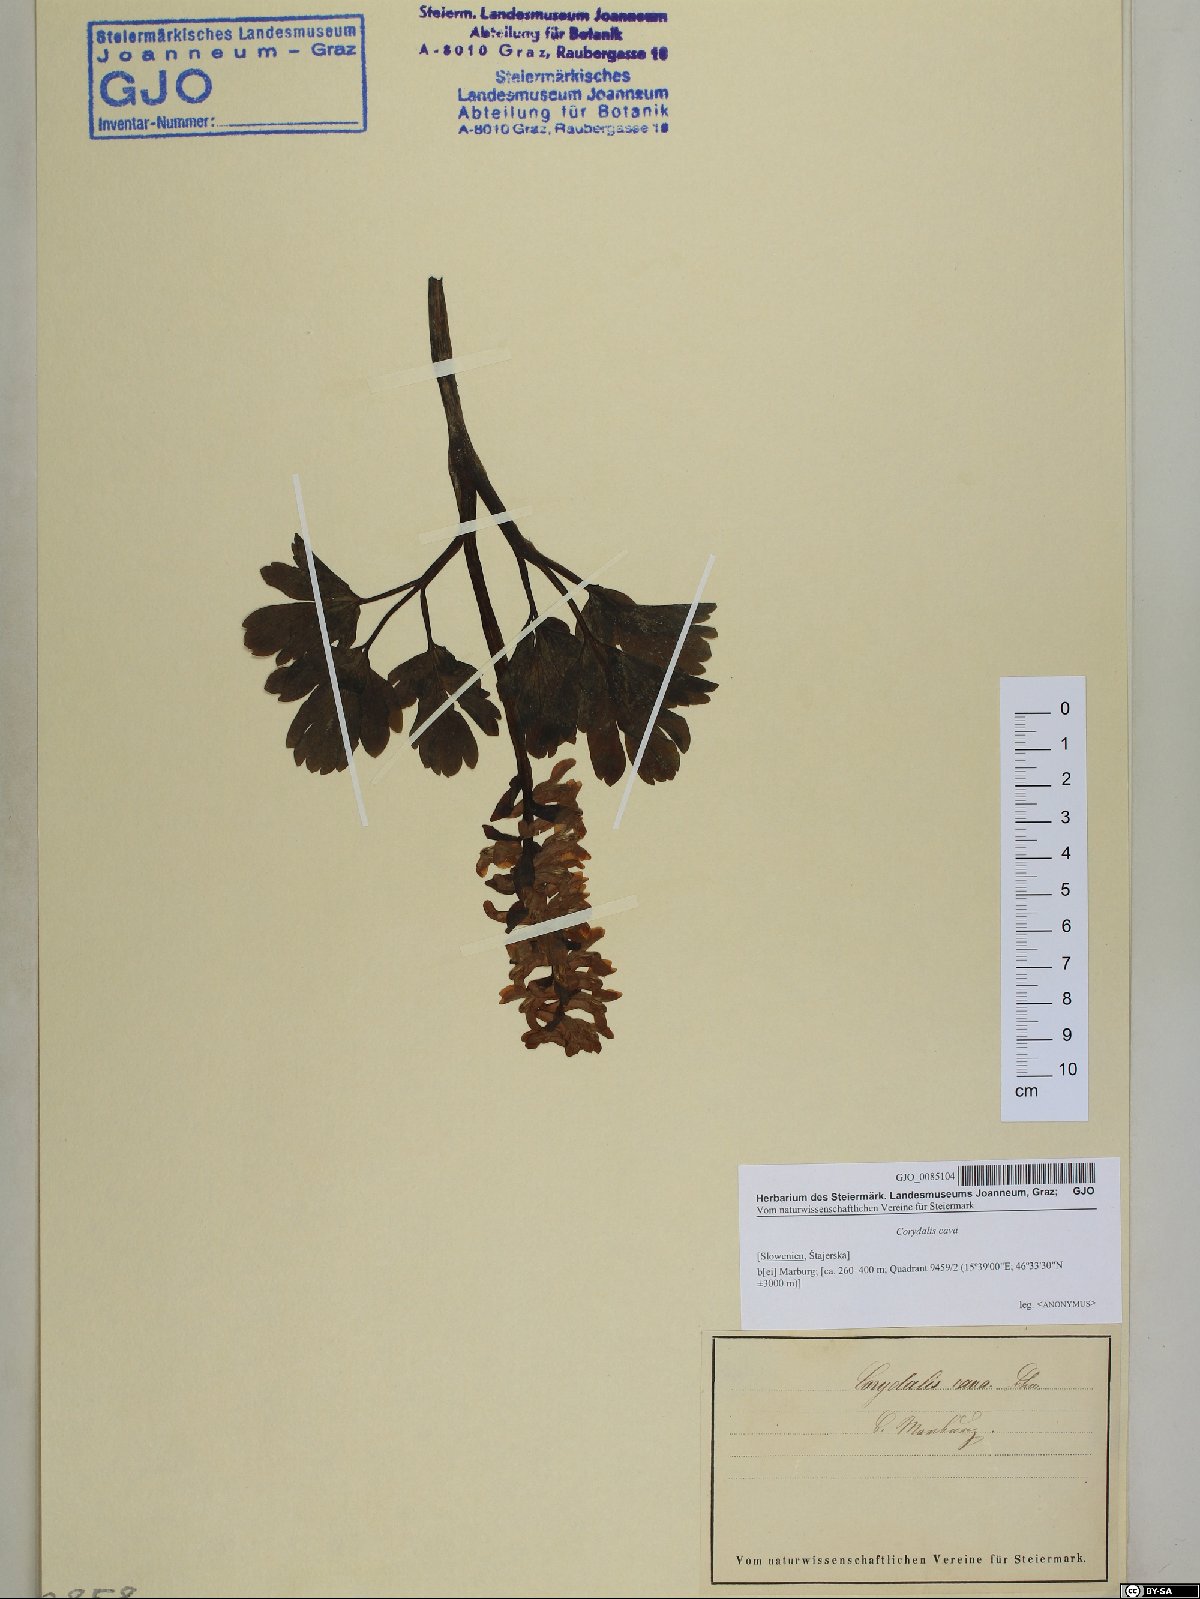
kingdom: Plantae
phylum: Tracheophyta
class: Magnoliopsida
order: Ranunculales
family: Papaveraceae
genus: Corydalis
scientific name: Corydalis cava
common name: Hollowroot
